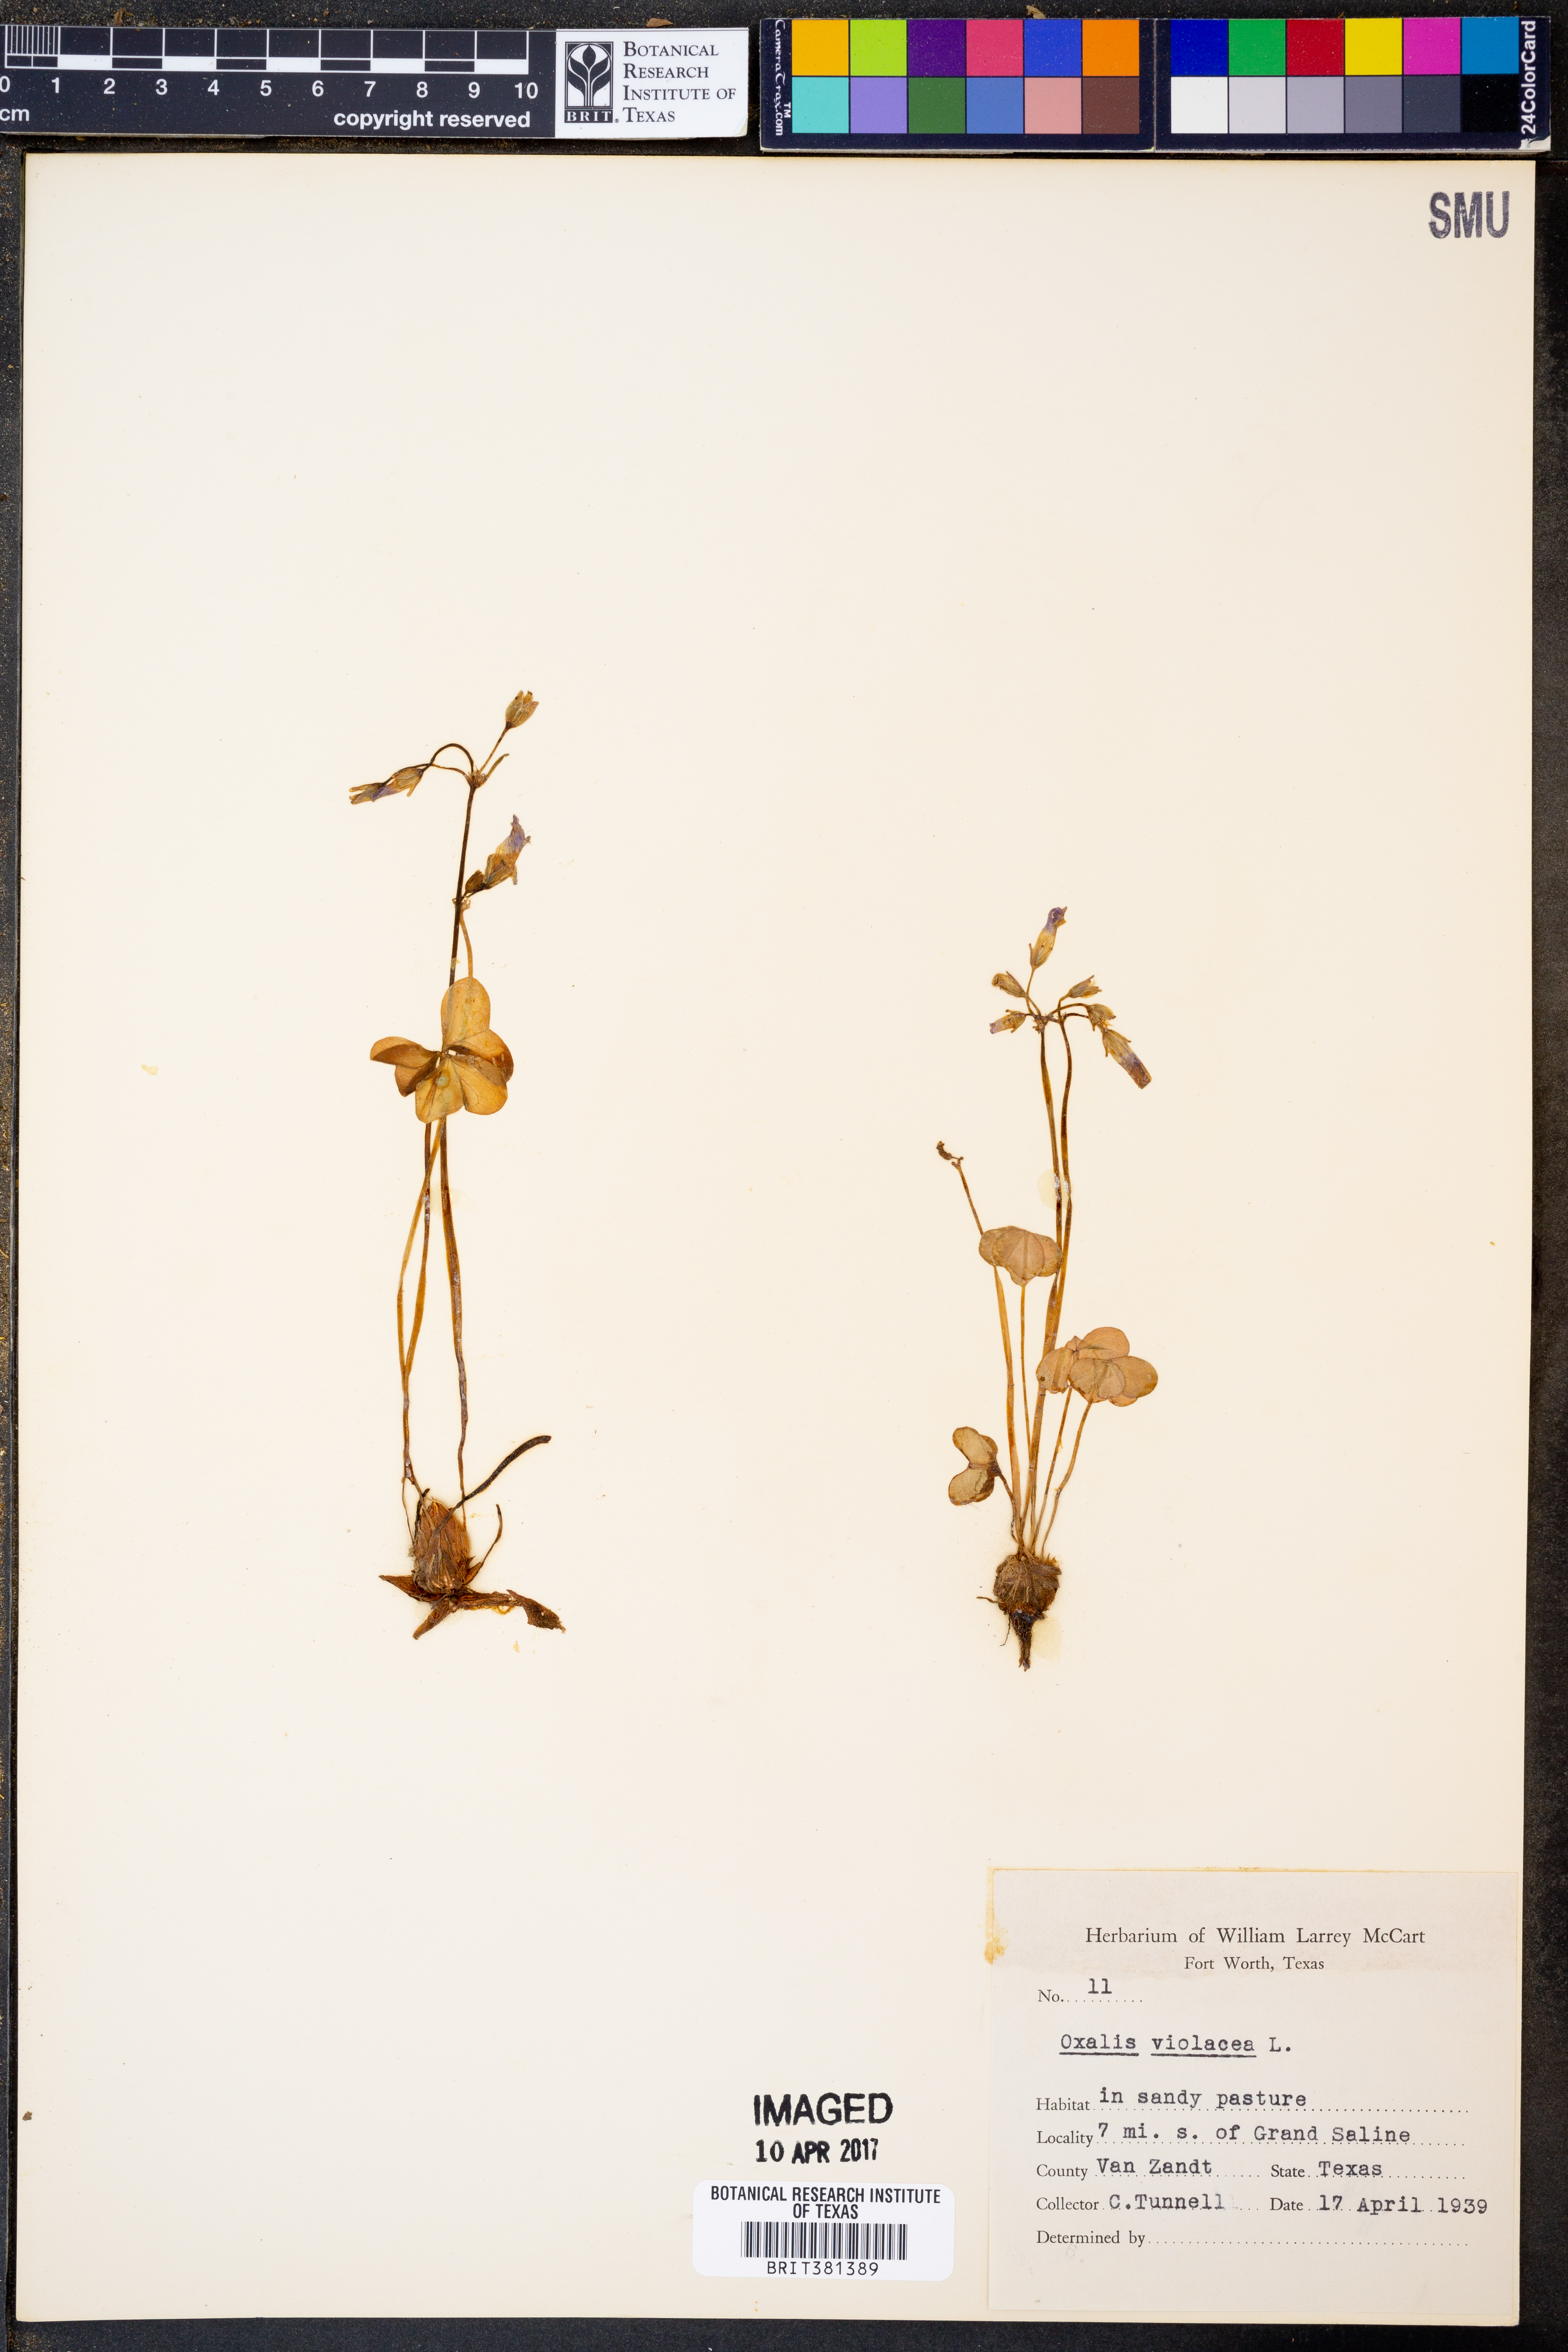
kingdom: Plantae
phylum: Tracheophyta
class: Magnoliopsida
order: Oxalidales
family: Oxalidaceae
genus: Oxalis
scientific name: Oxalis violacea
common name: Violet wood-sorrel
